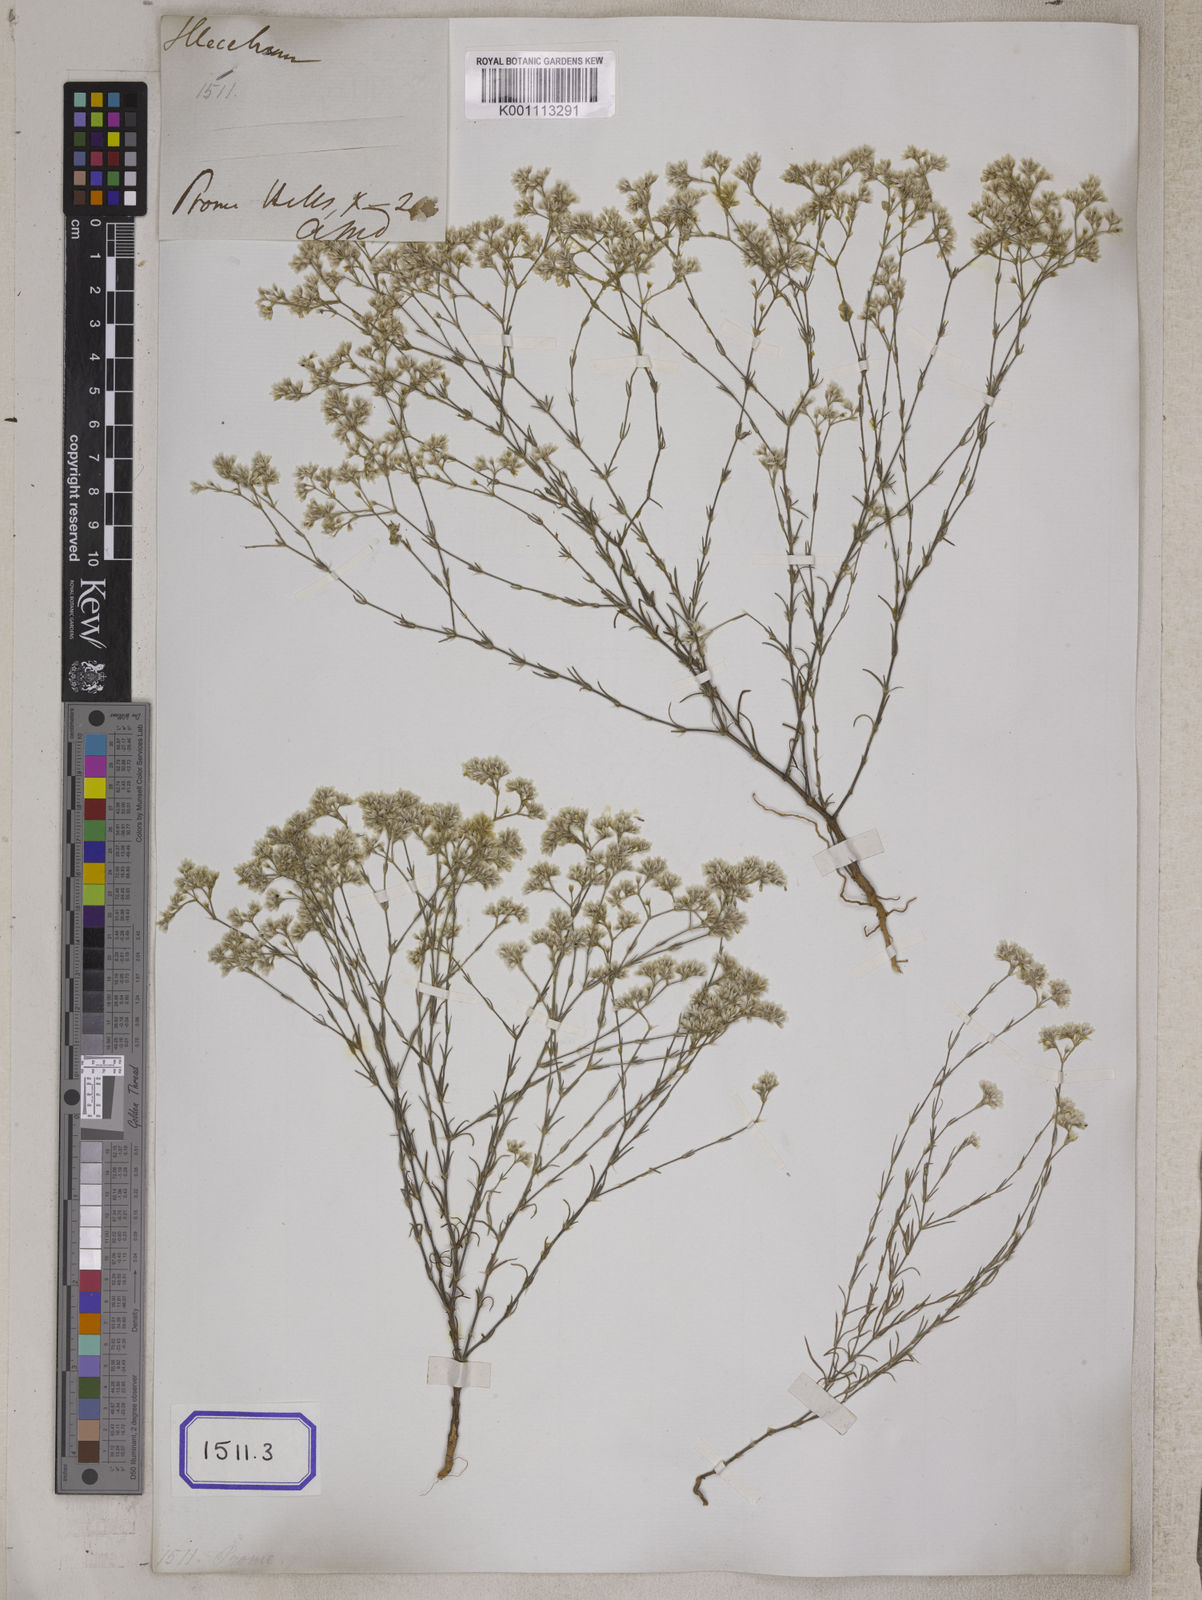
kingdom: Plantae
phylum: Tracheophyta
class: Magnoliopsida
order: Caryophyllales
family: Caryophyllaceae
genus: Polycarpaea
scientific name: Polycarpaea corymbosa
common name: Oldman's cap
